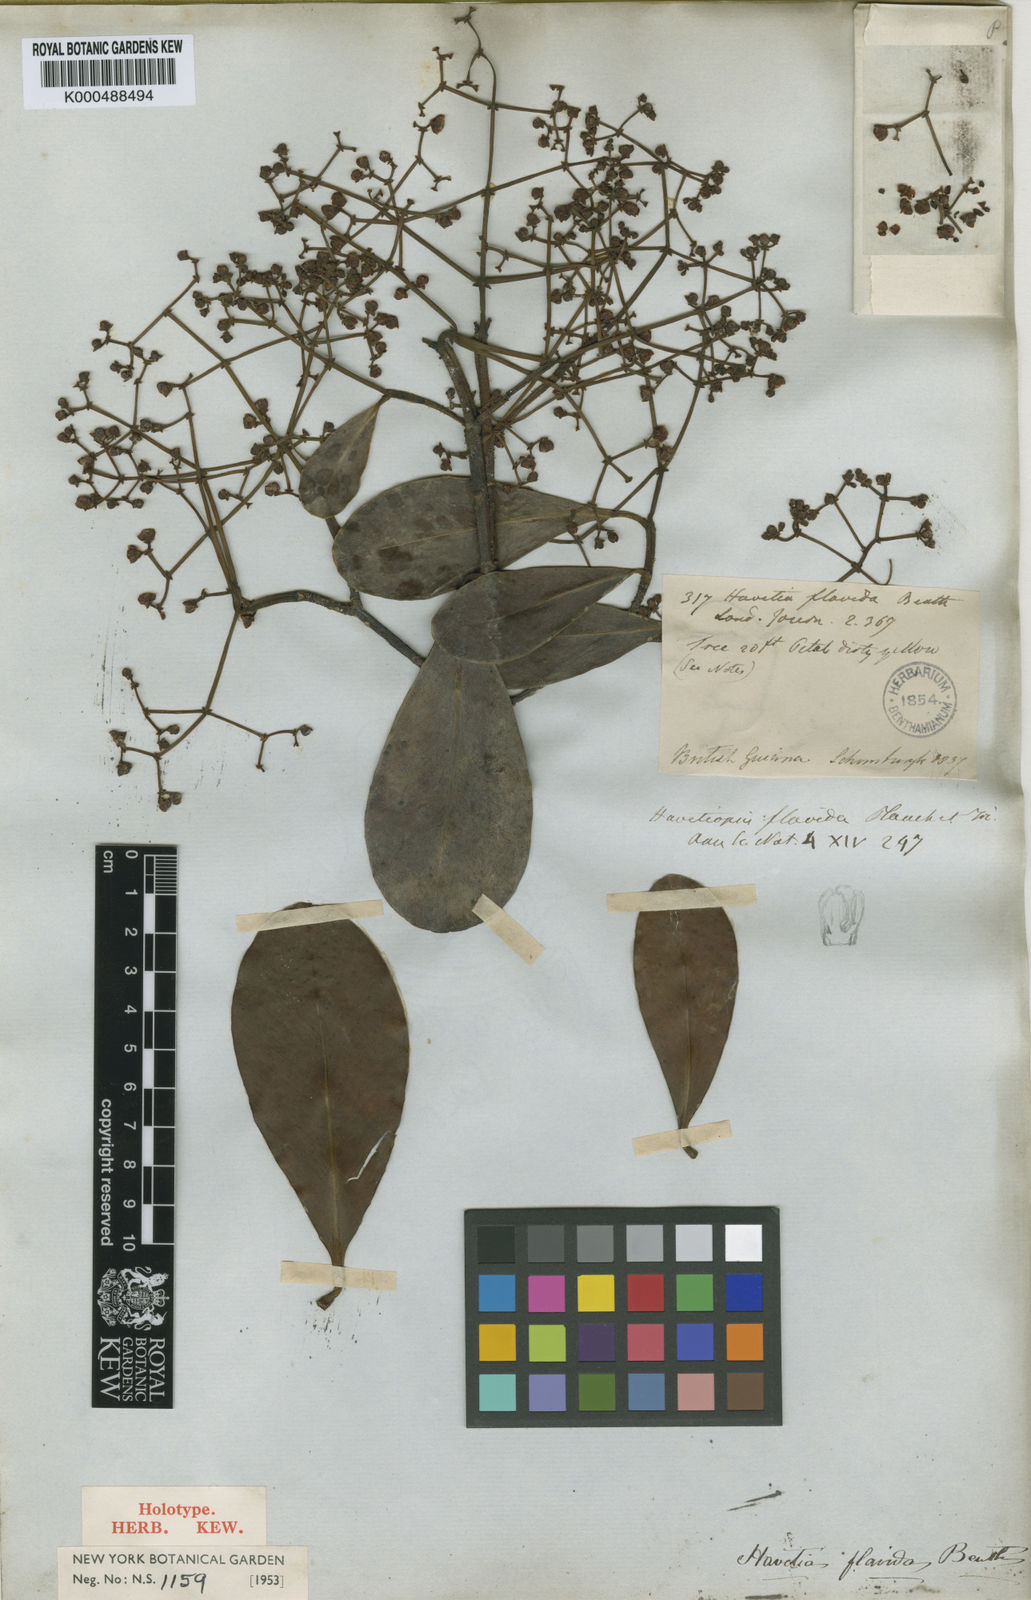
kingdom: Plantae
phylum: Tracheophyta
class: Magnoliopsida
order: Malpighiales
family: Clusiaceae
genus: Clusia
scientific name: Clusia flavida
